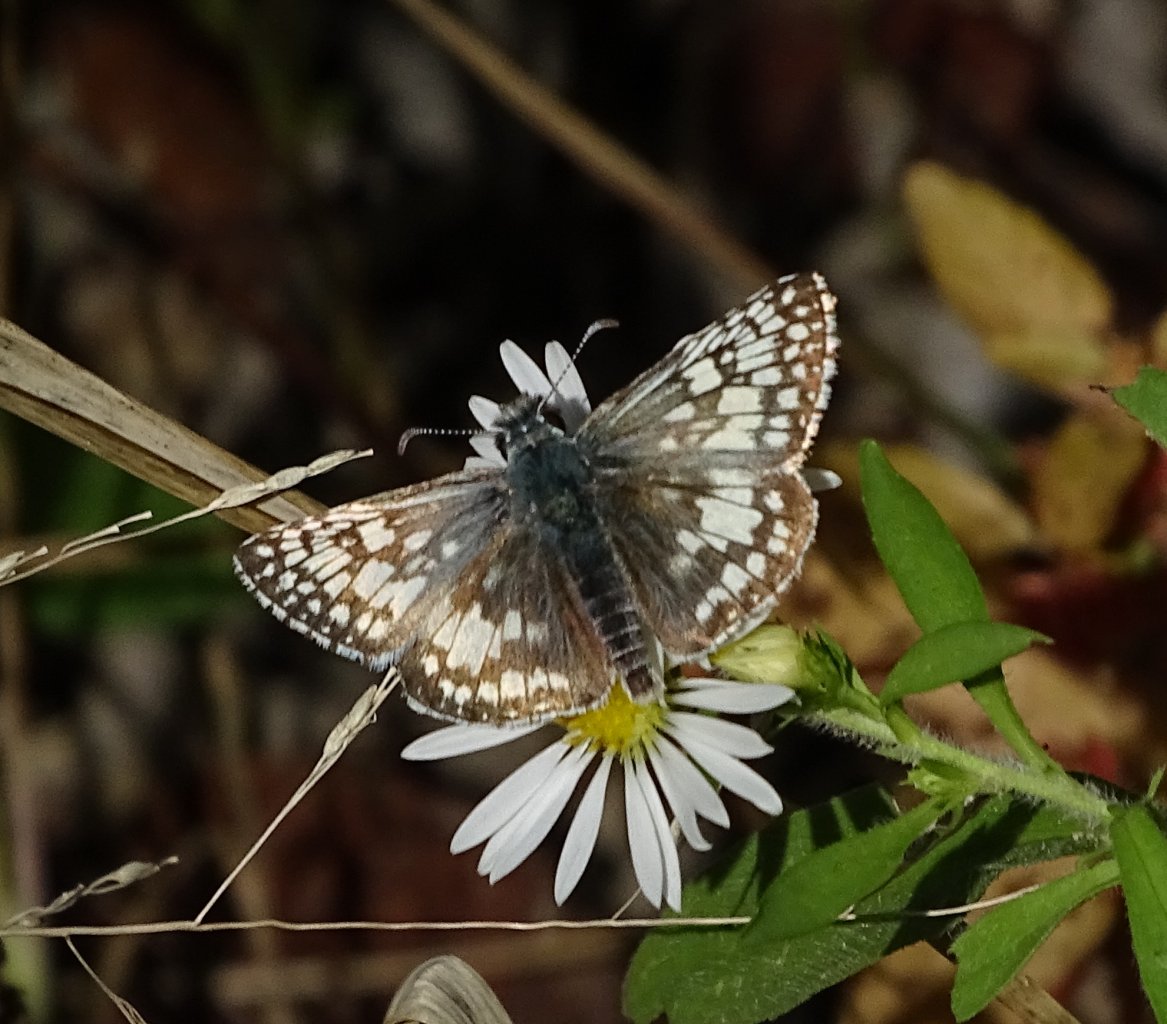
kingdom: Animalia
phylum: Arthropoda
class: Insecta
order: Lepidoptera
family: Hesperiidae
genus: Pyrgus
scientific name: Pyrgus communis
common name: Common Checkered-Skipper
